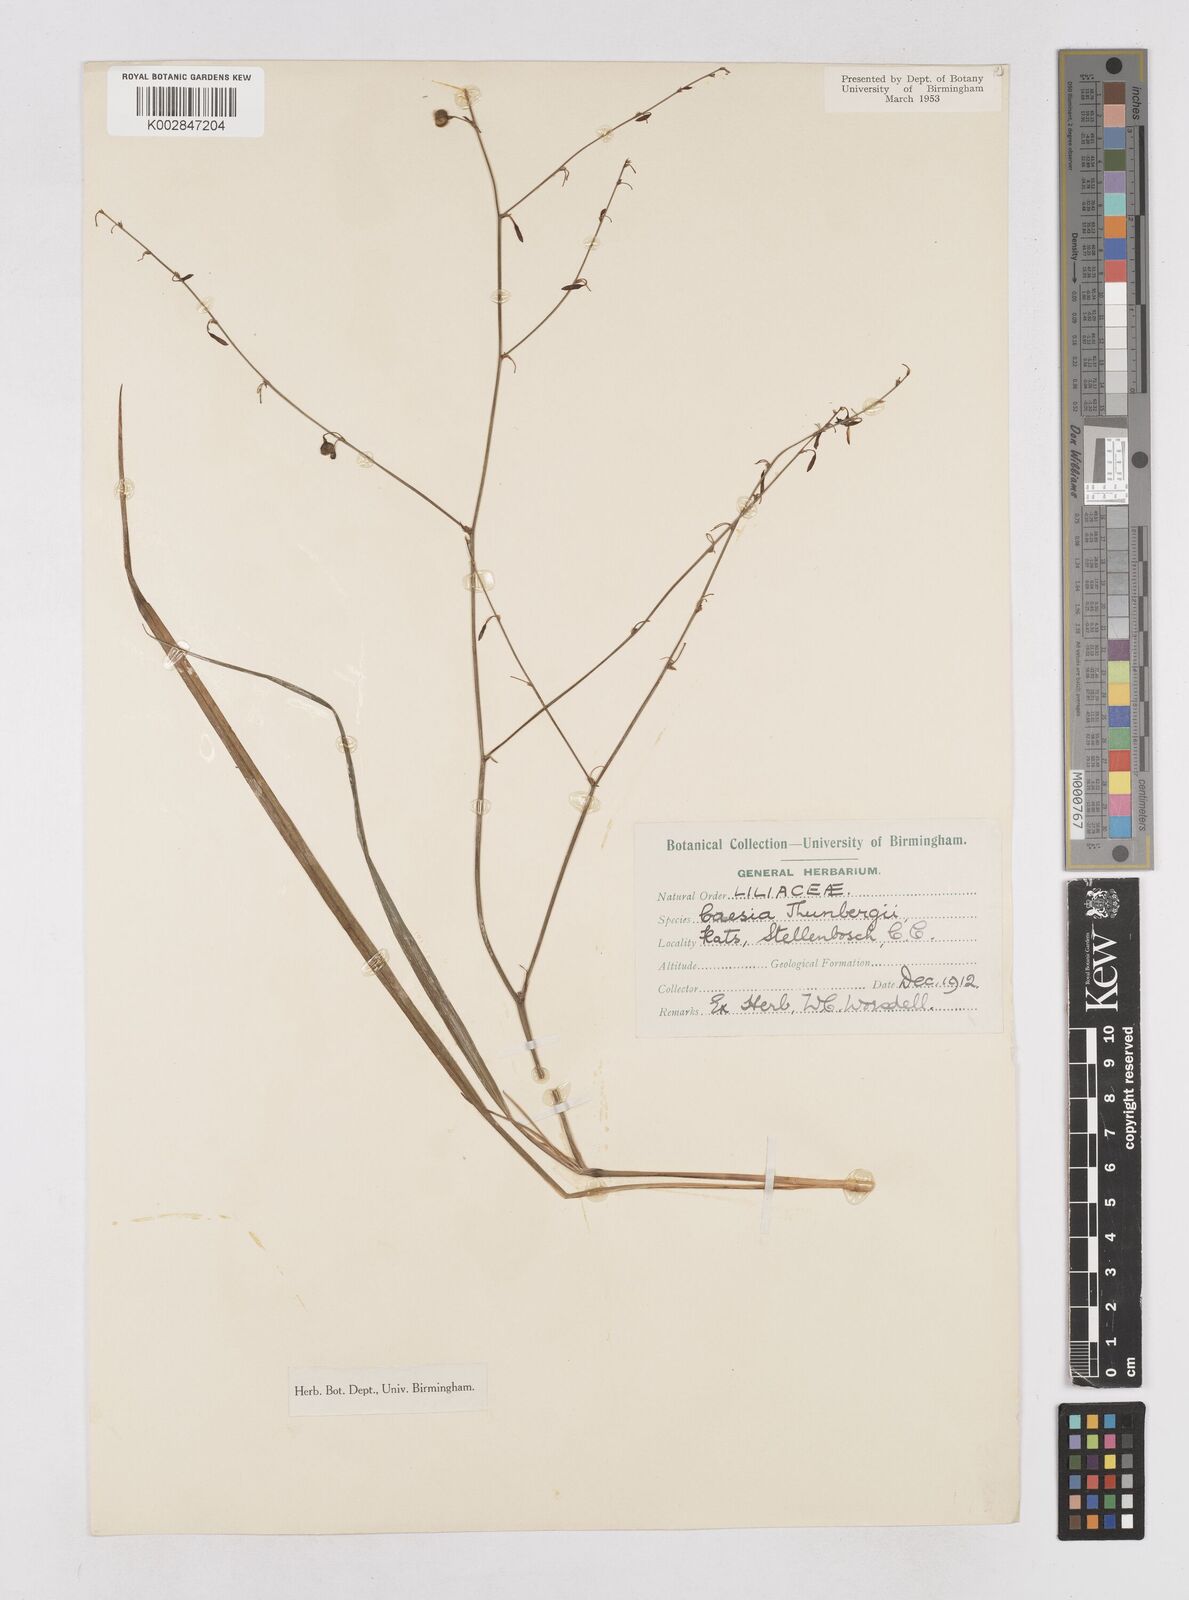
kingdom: Plantae
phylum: Tracheophyta
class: Liliopsida
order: Asparagales
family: Asphodelaceae
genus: Caesia
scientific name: Caesia contorta
